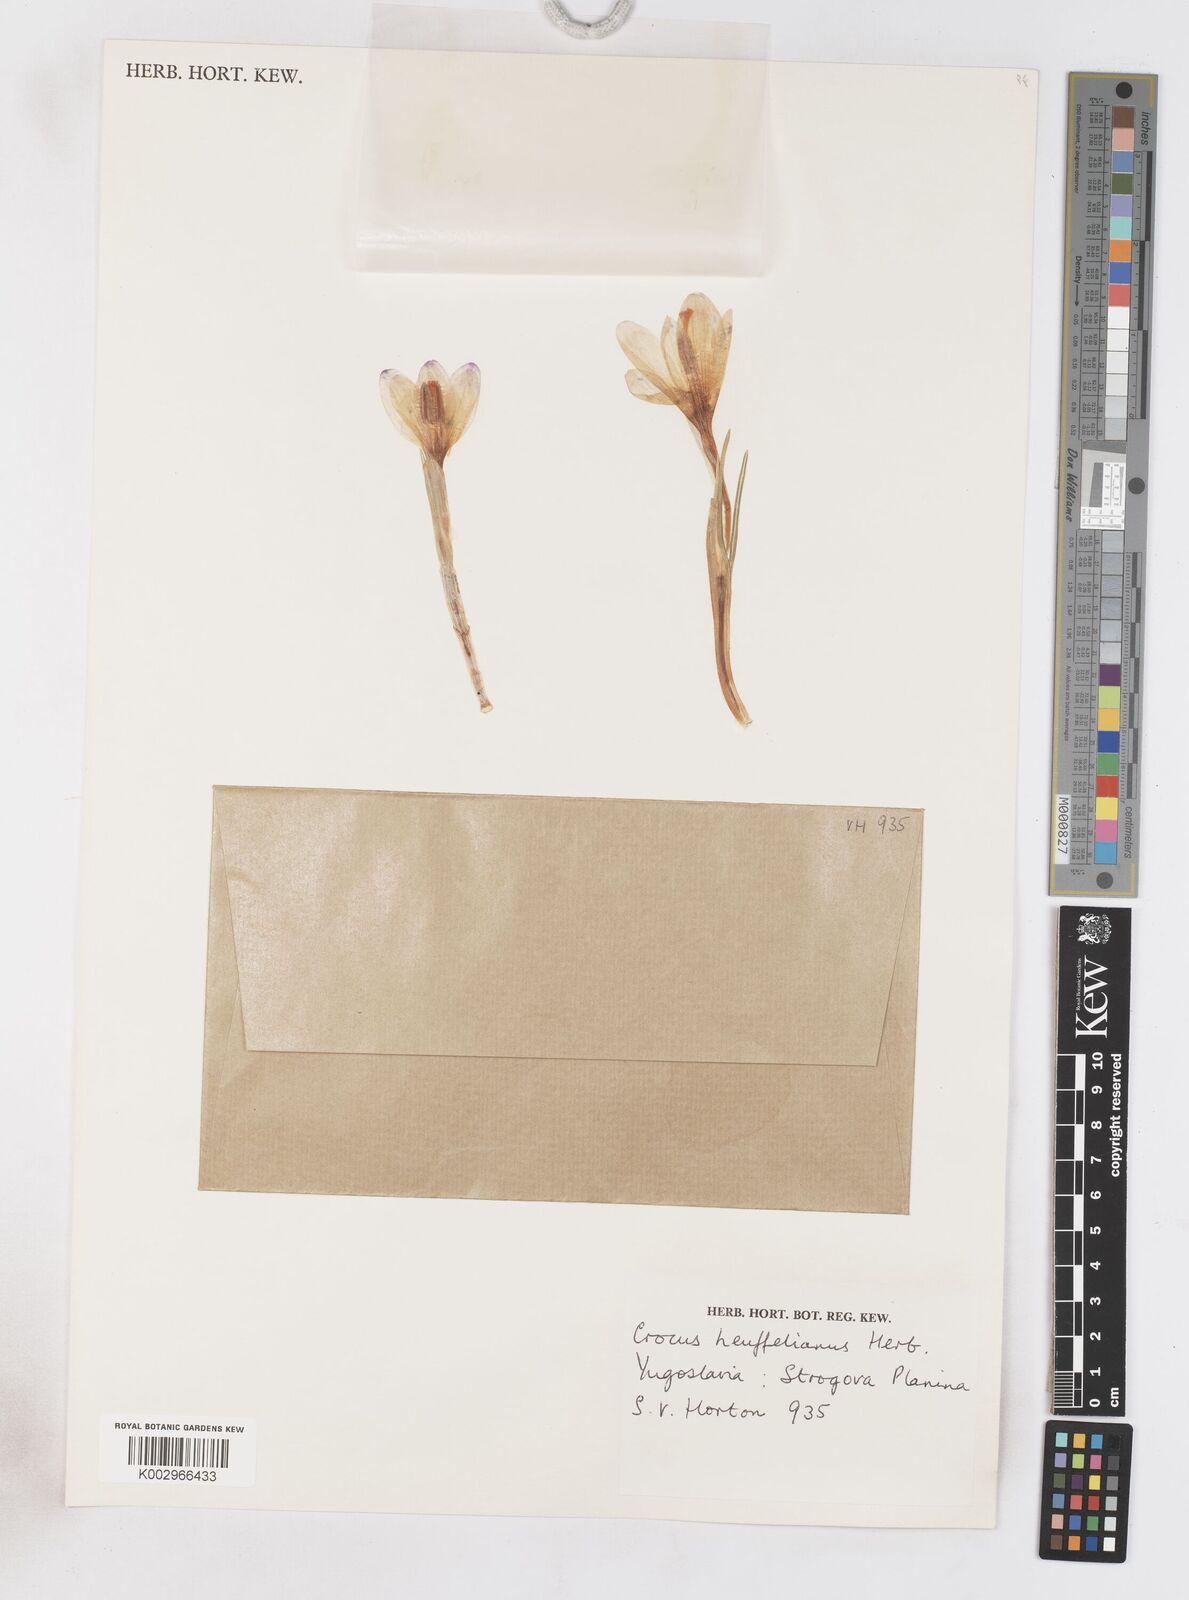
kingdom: Plantae
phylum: Tracheophyta
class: Liliopsida
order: Asparagales
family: Iridaceae
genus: Crocus
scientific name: Crocus vernus
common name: Spring crocus
